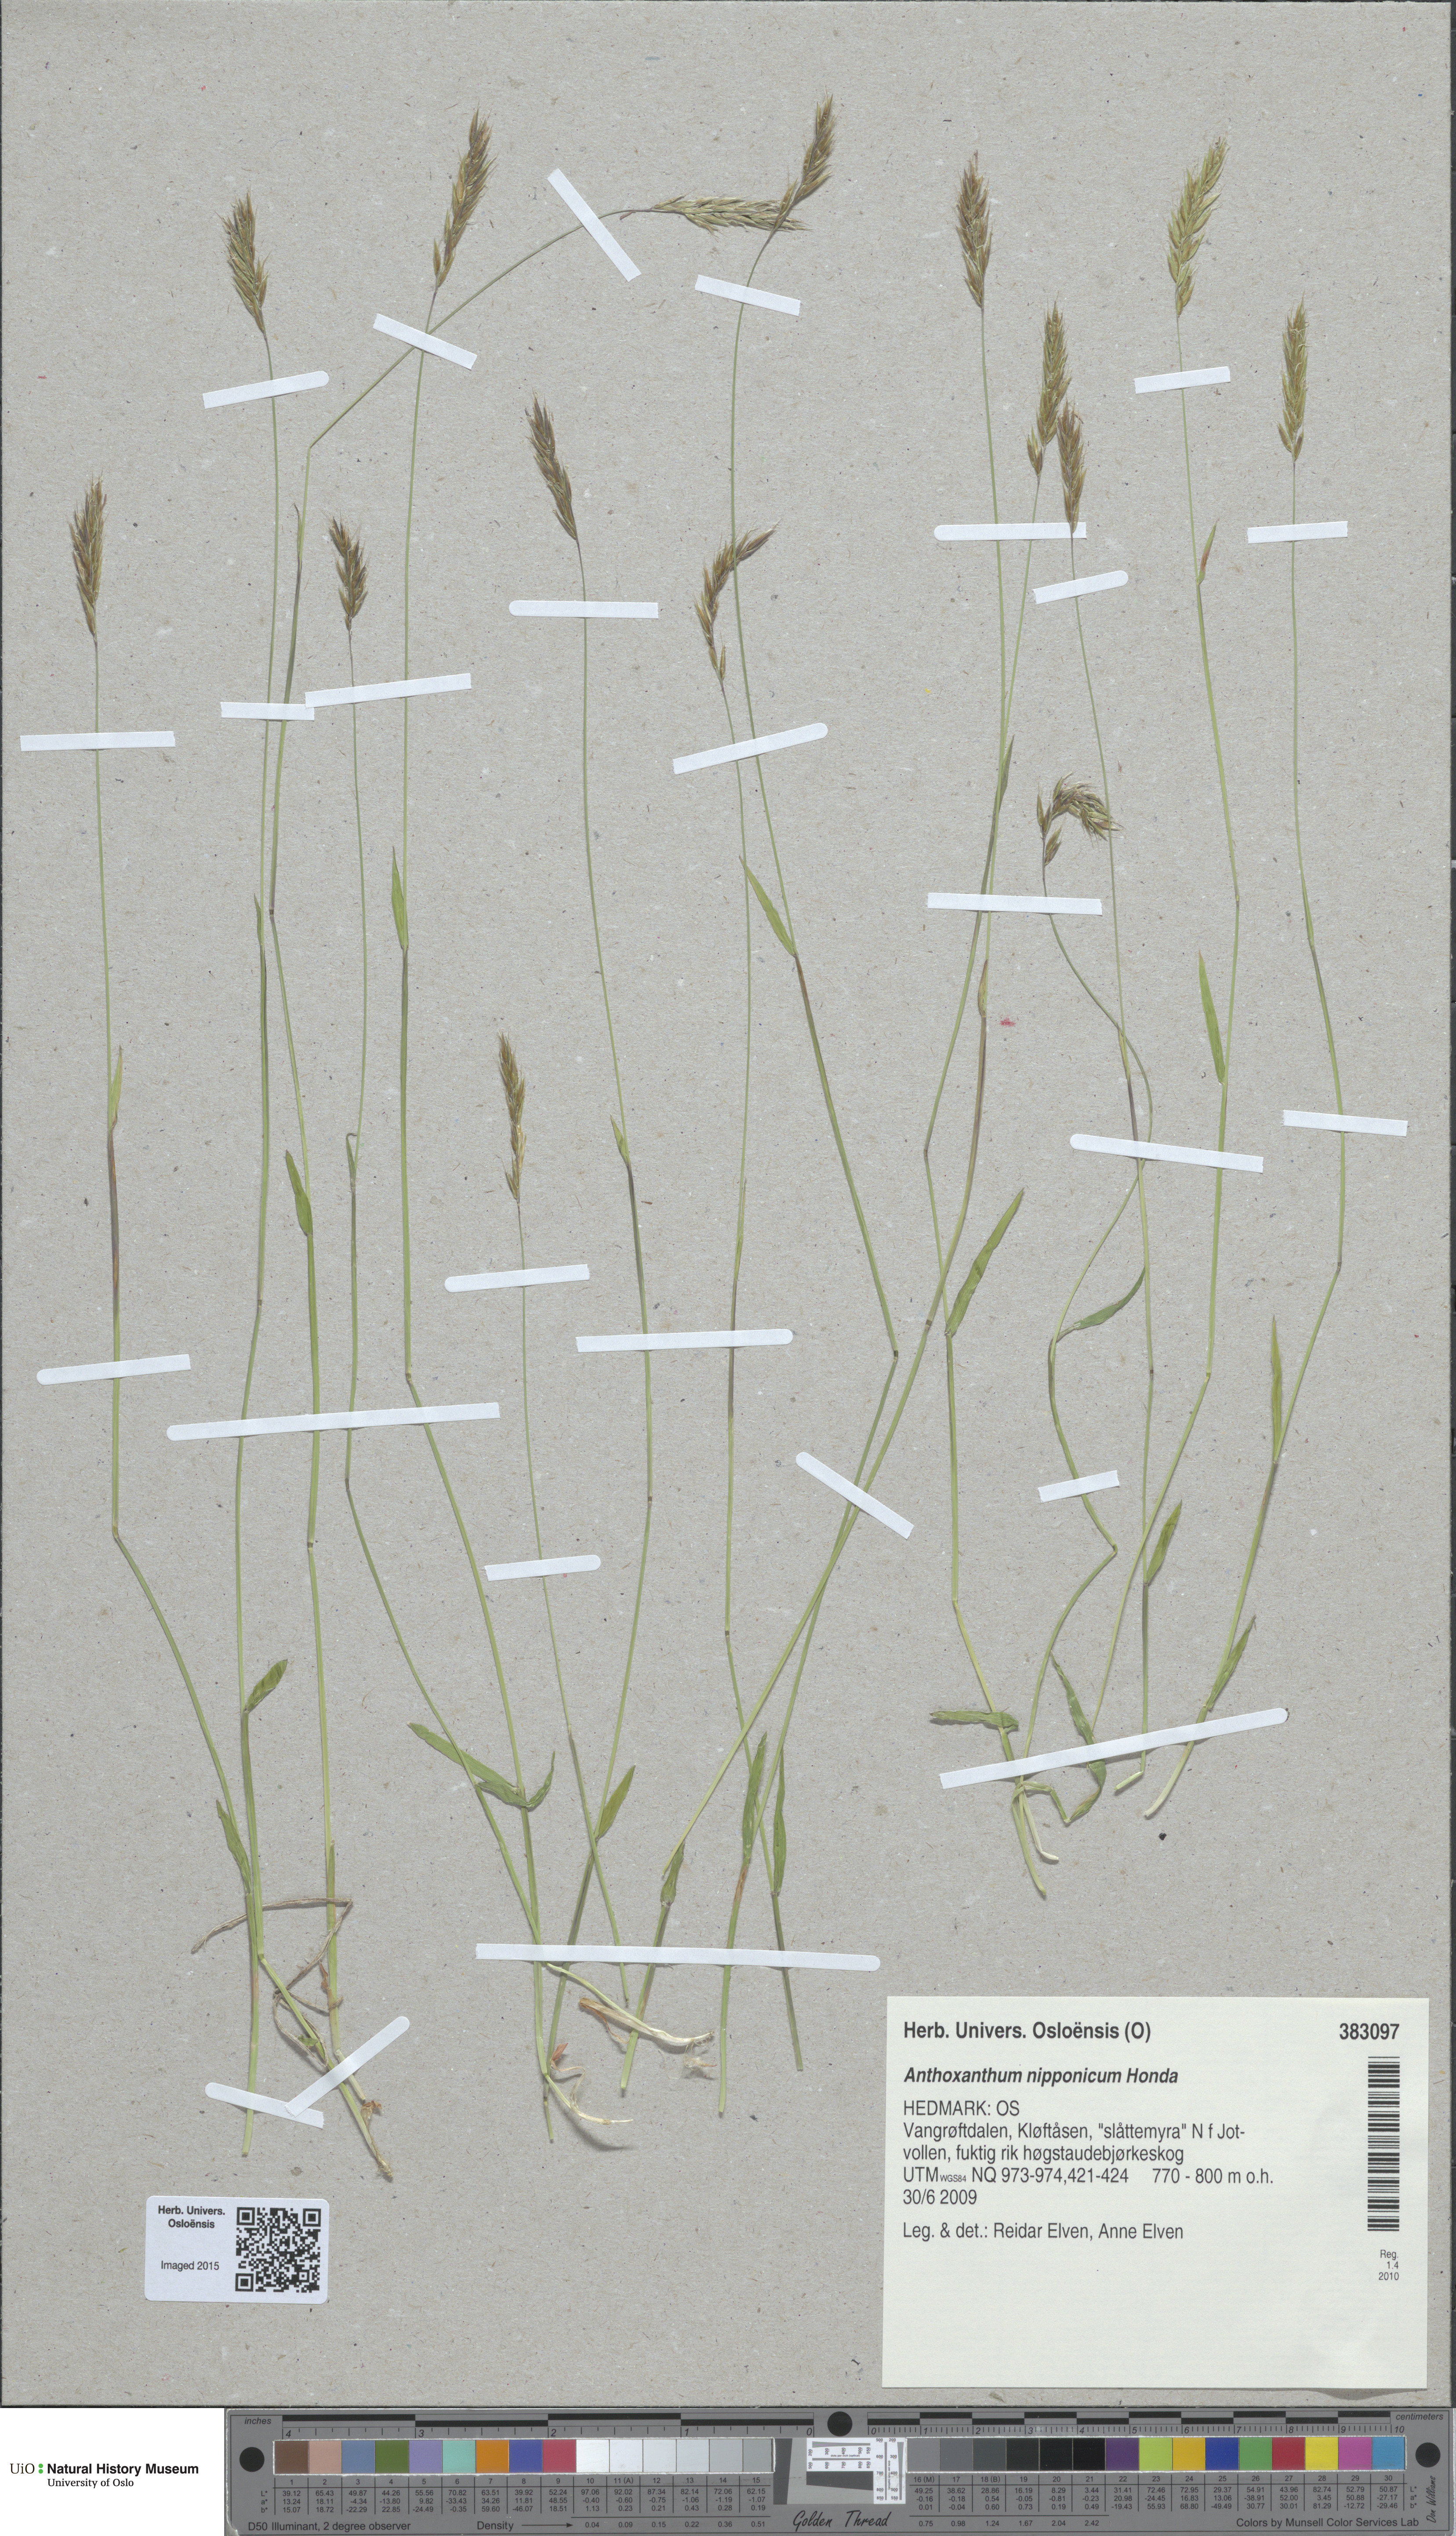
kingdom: Plantae
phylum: Tracheophyta
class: Liliopsida
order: Poales
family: Poaceae
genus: Anthoxanthum
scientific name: Anthoxanthum nipponicum
